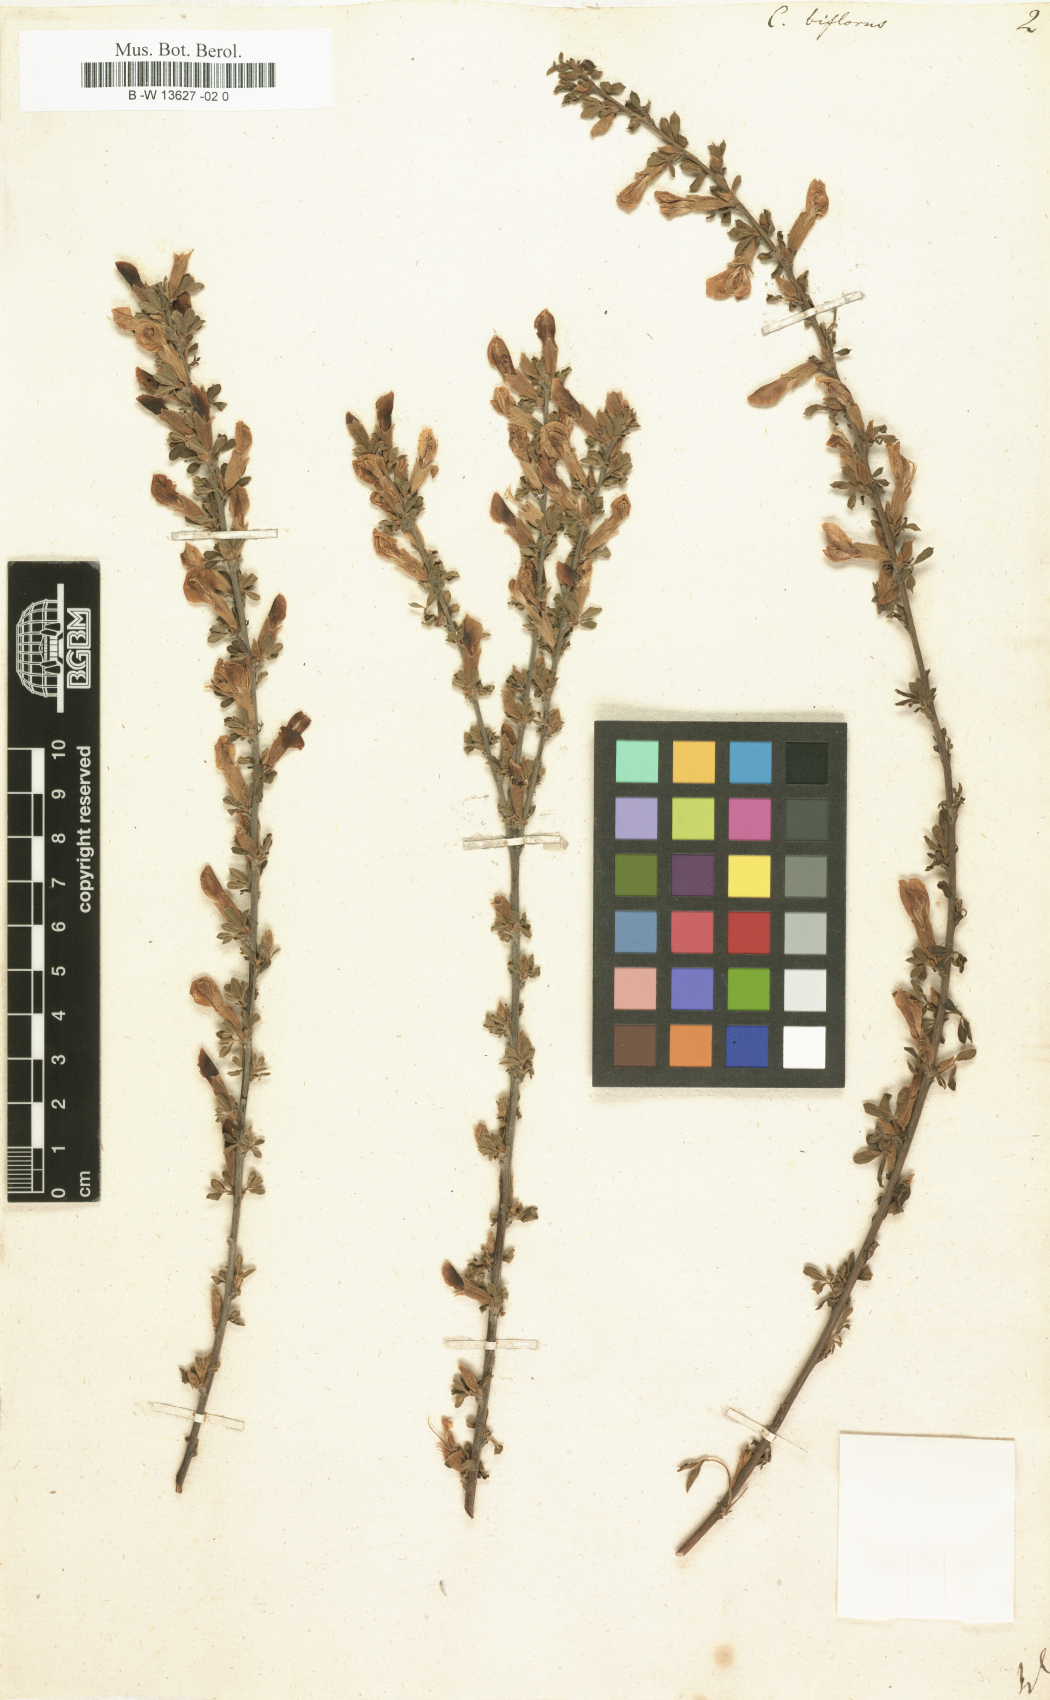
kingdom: Plantae
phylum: Tracheophyta
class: Magnoliopsida
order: Fabales
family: Fabaceae
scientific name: Fabaceae
